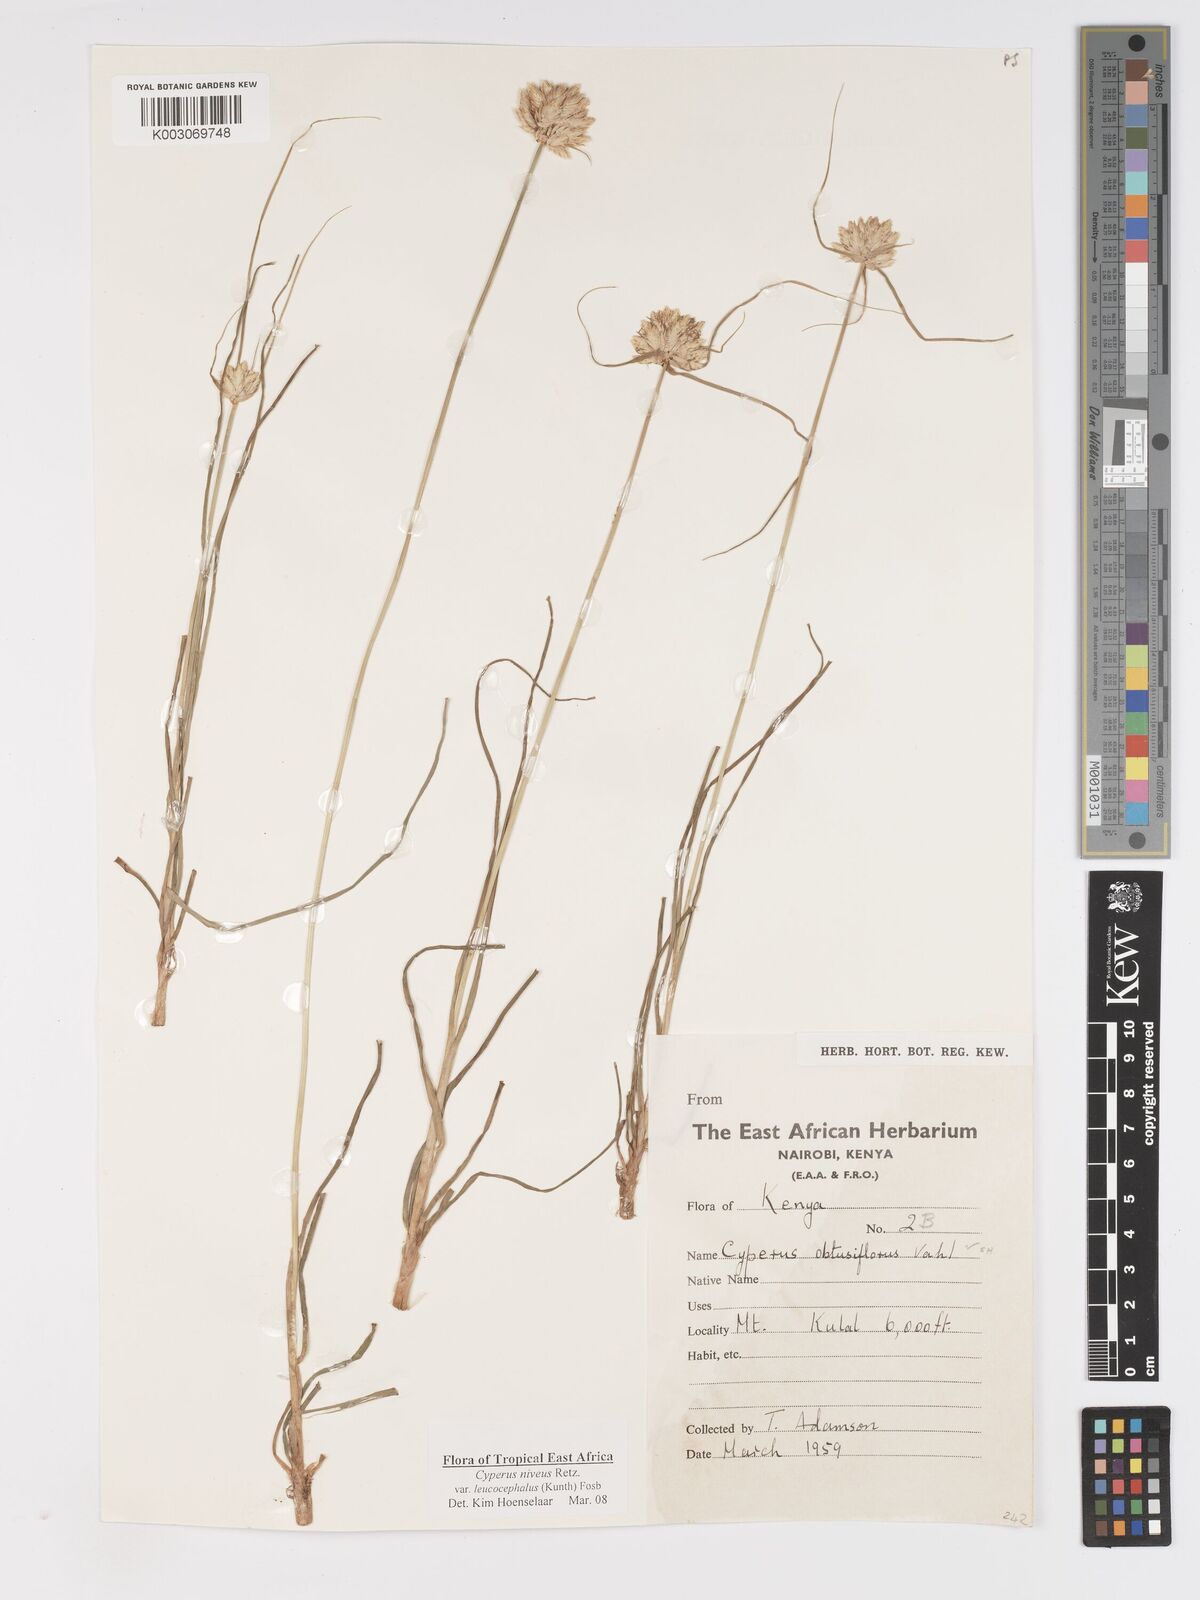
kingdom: Plantae
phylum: Tracheophyta
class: Liliopsida
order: Poales
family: Cyperaceae
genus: Cyperus
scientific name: Cyperus niveus
